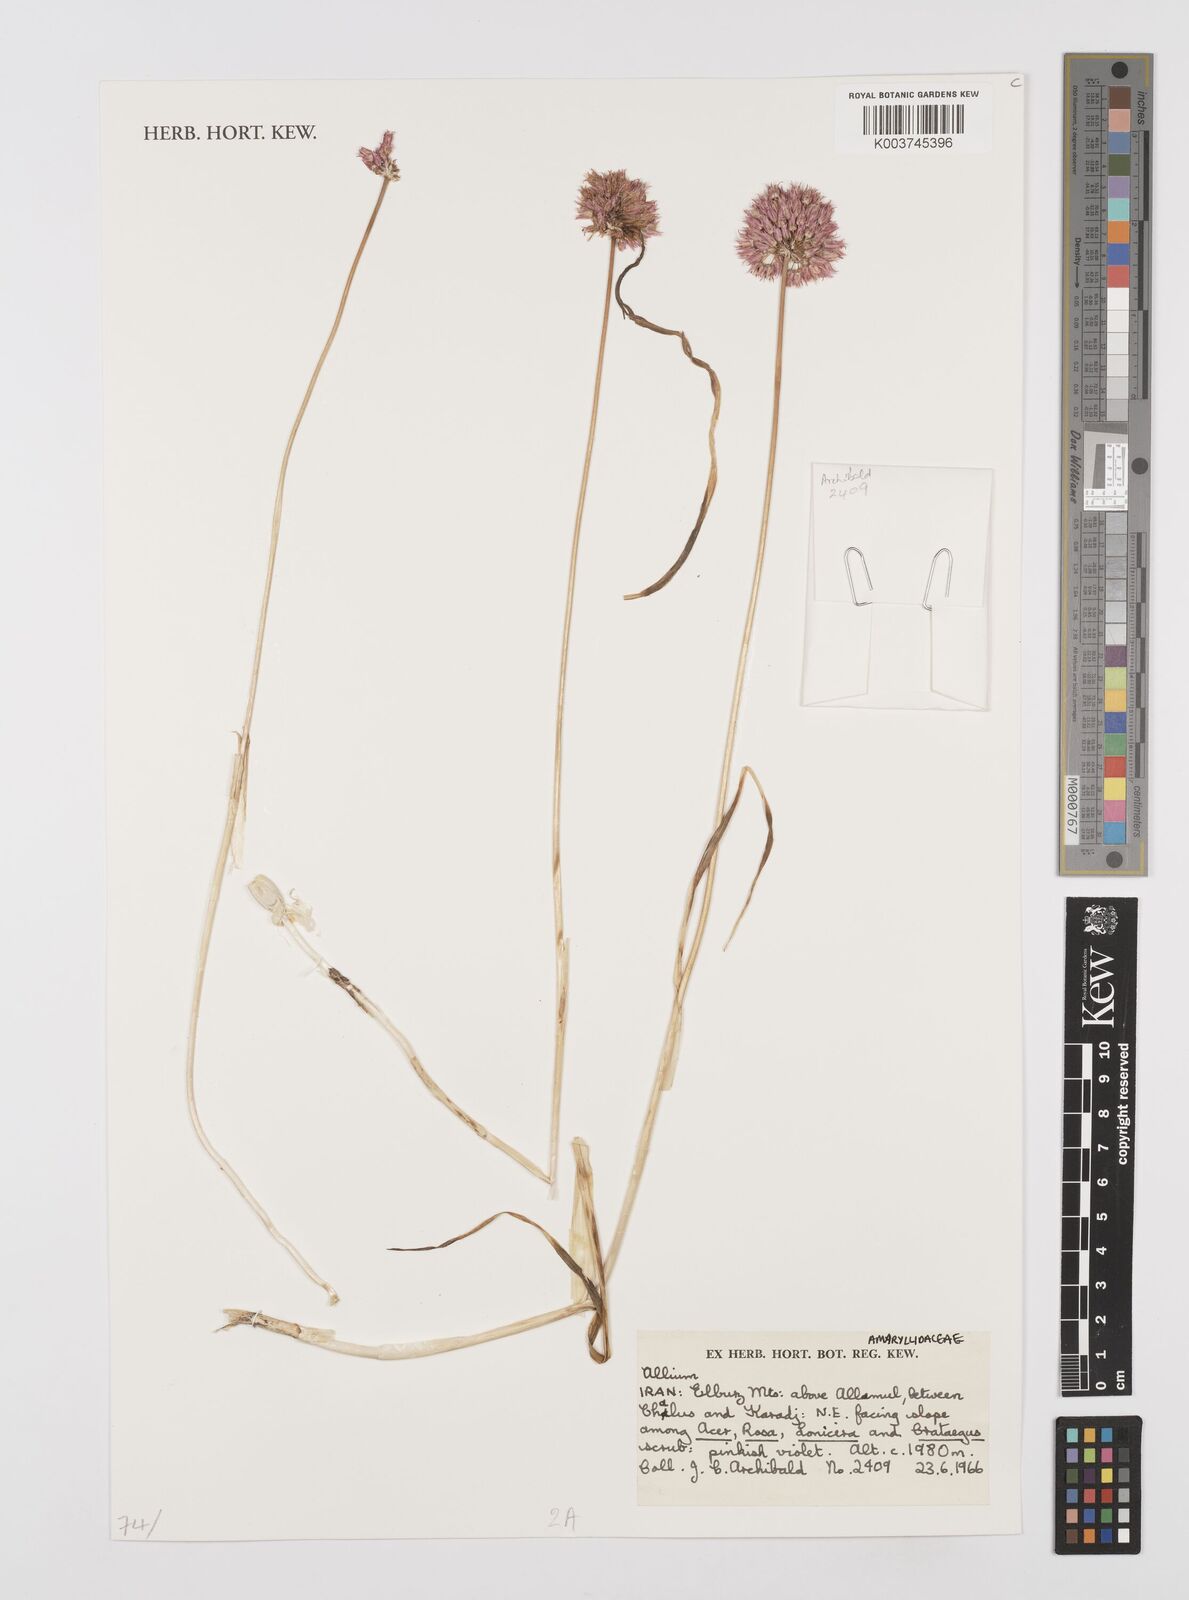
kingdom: Plantae
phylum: Tracheophyta
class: Liliopsida
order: Asparagales
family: Amaryllidaceae
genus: Allium
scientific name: Allium
